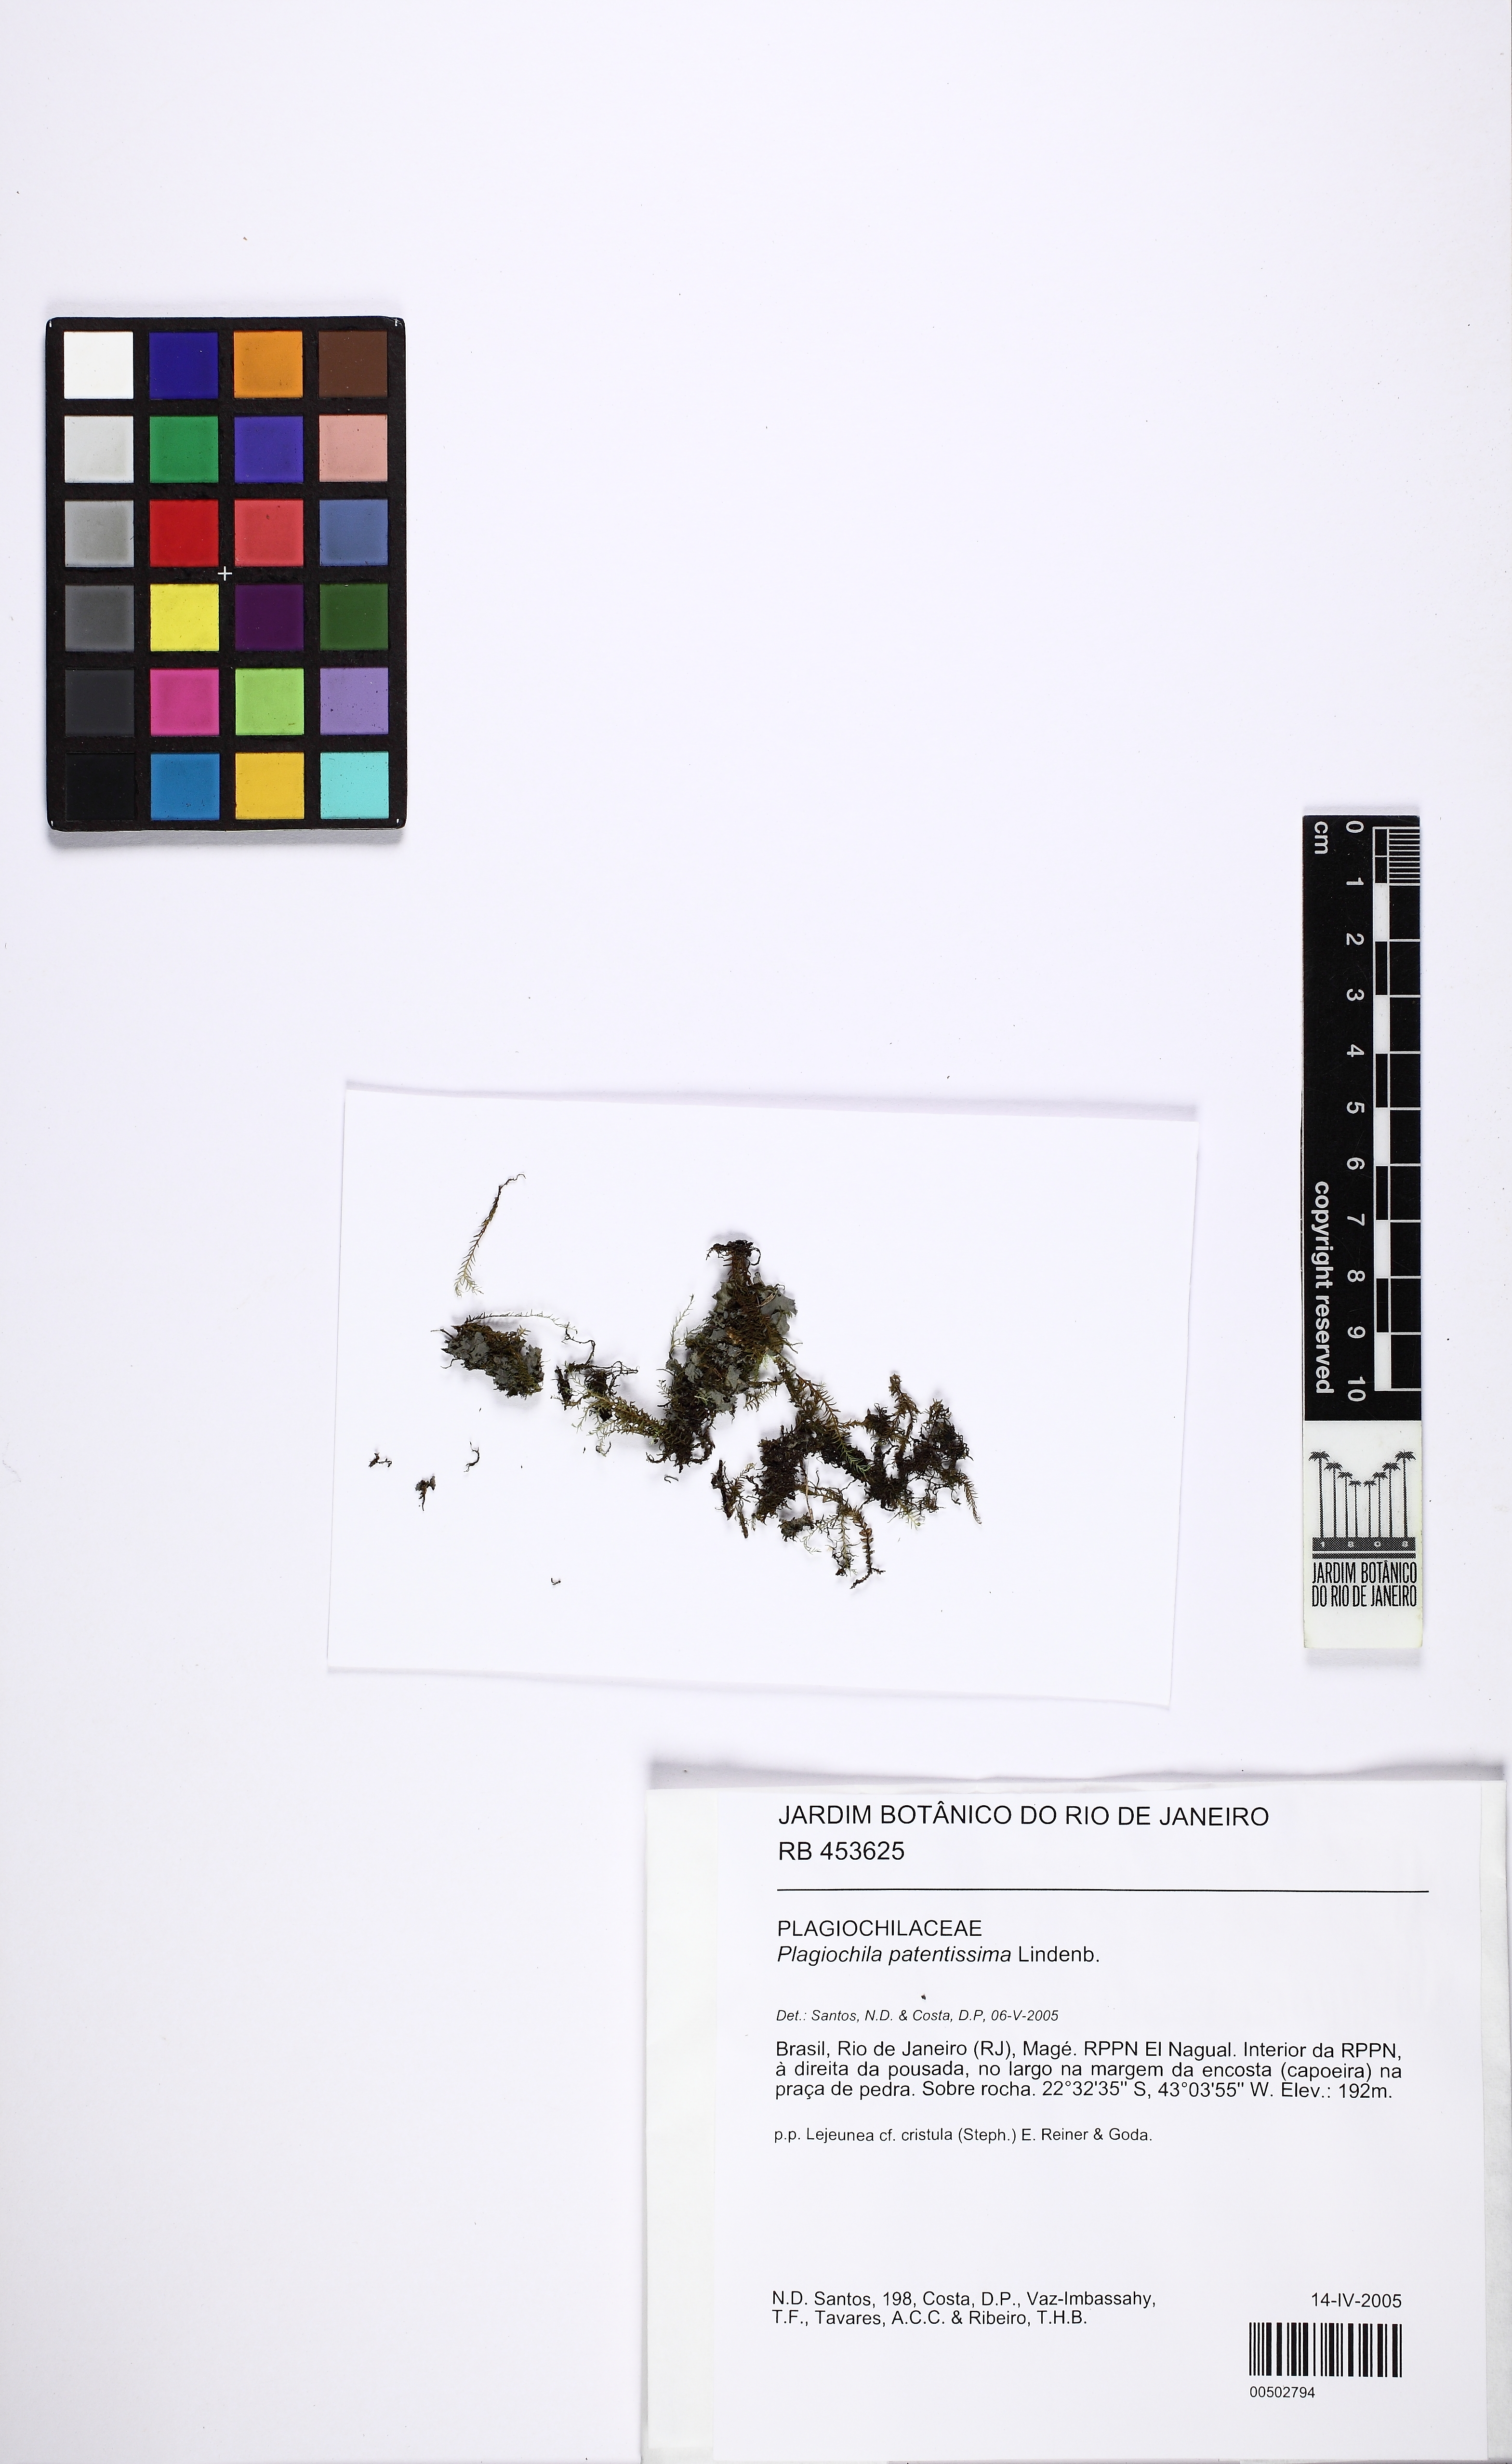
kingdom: Plantae
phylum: Marchantiophyta
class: Jungermanniopsida
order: Jungermanniales
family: Plagiochilaceae
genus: Plagiochila
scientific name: Plagiochila crispabilis
